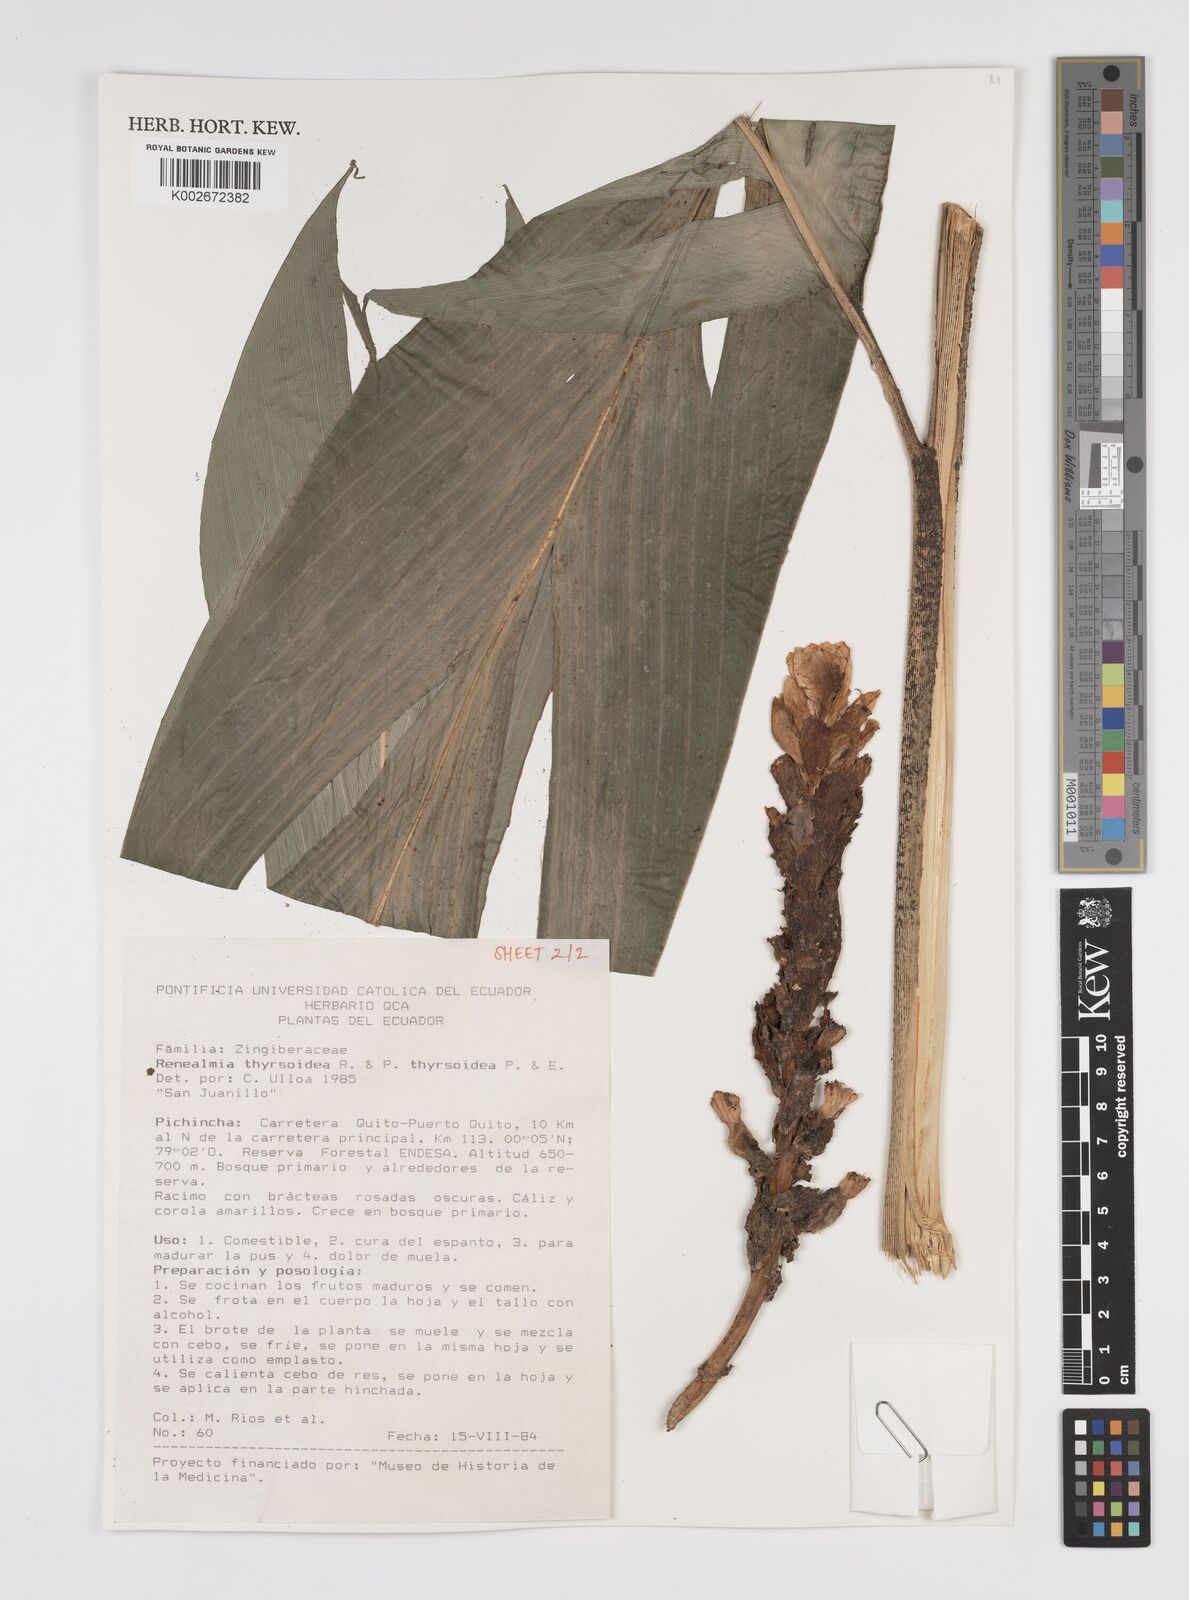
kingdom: Plantae
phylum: Tracheophyta
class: Liliopsida
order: Zingiberales
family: Zingiberaceae
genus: Renealmia
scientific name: Renealmia thyrsoidea
